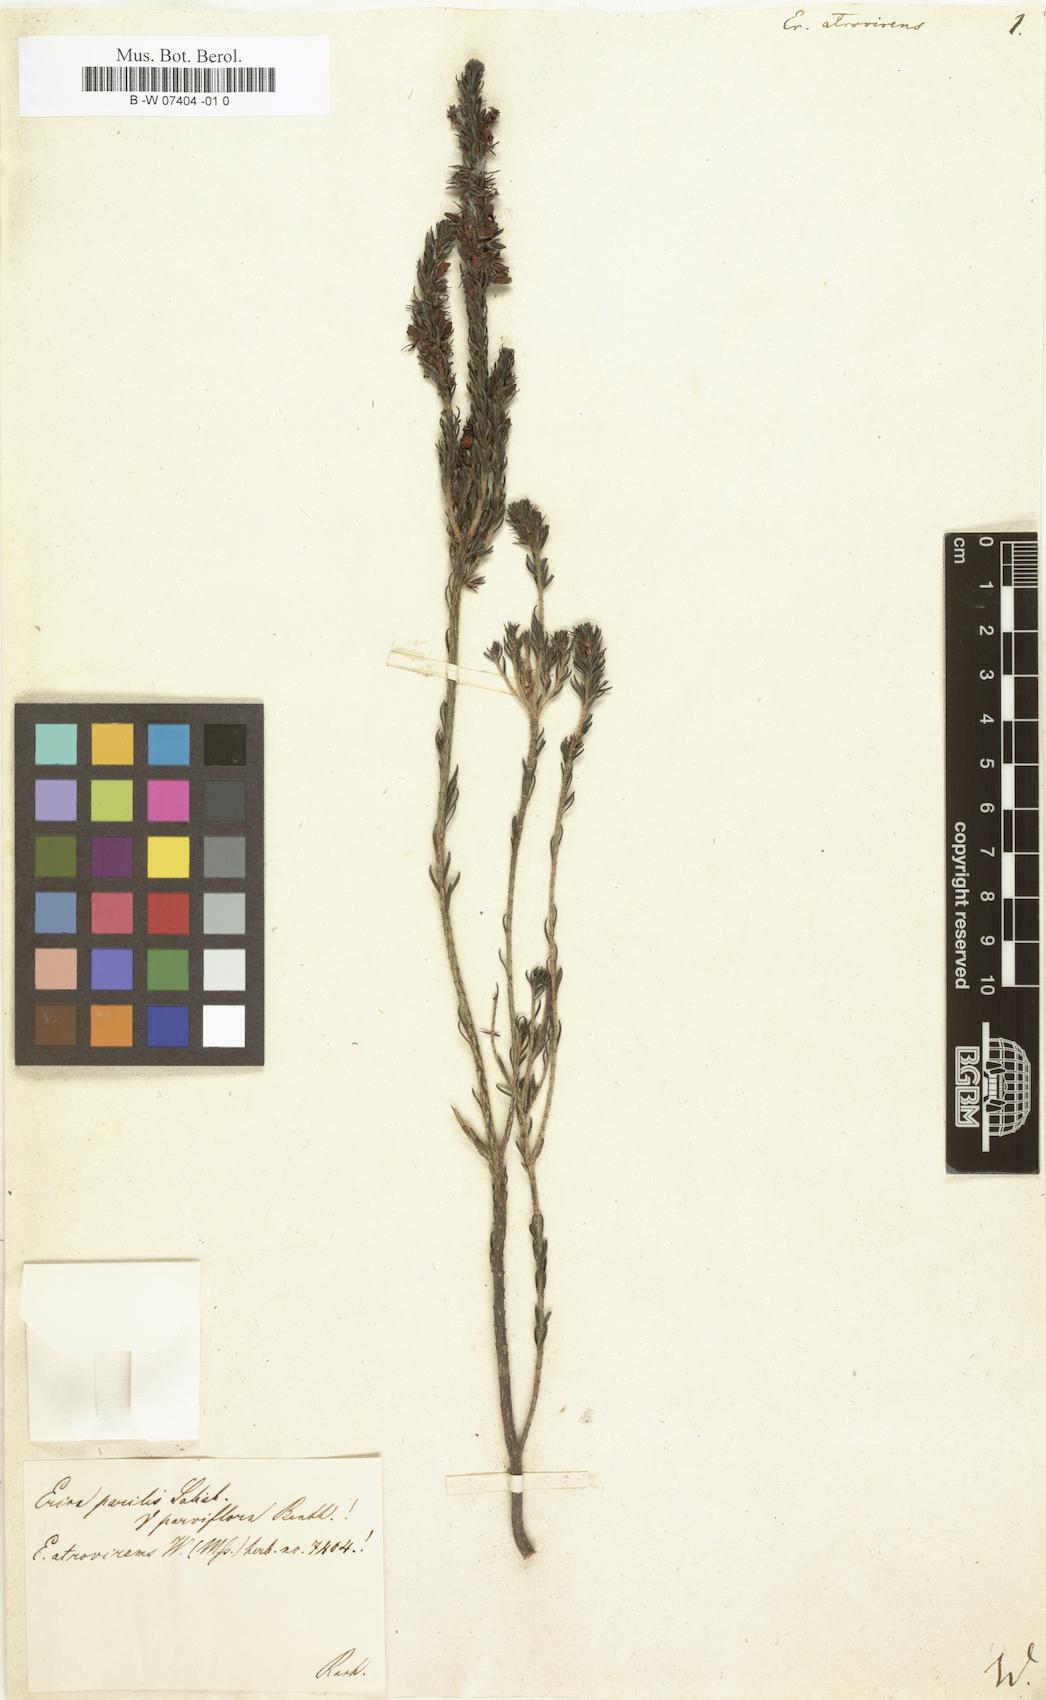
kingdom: Plantae
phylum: Tracheophyta
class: Magnoliopsida
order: Ericales
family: Ericaceae
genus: Erica
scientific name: Erica
